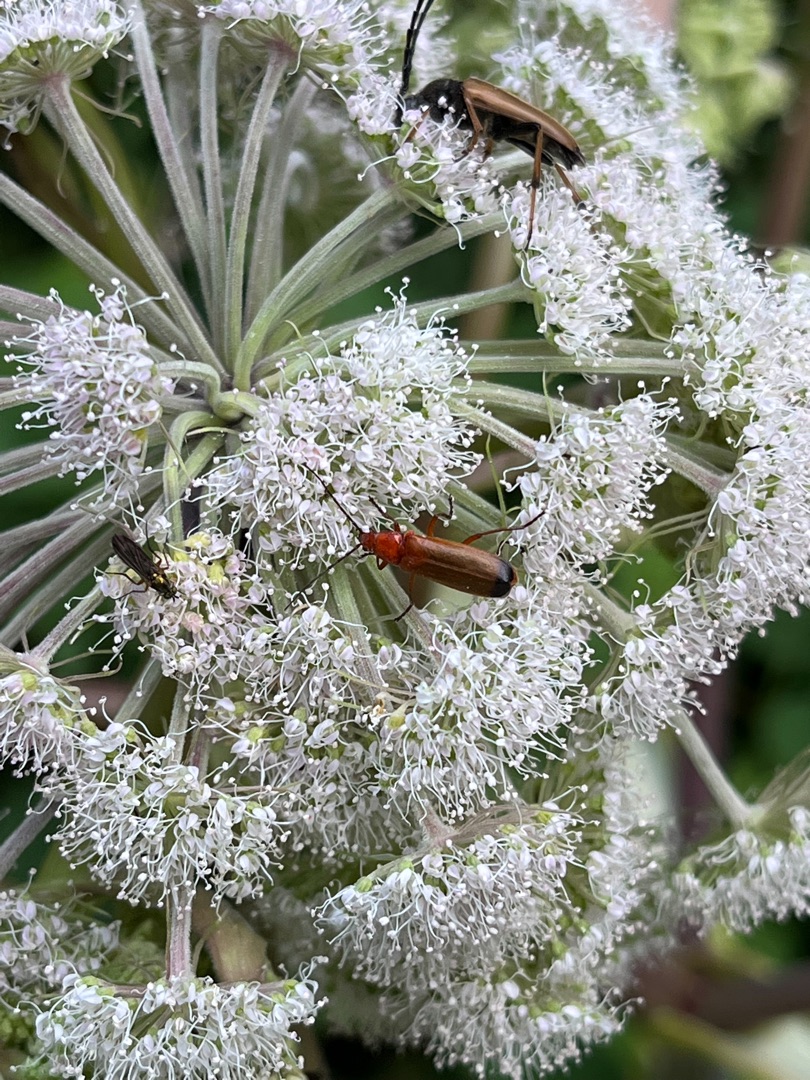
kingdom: Animalia
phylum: Arthropoda
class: Insecta
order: Coleoptera
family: Cantharidae
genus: Rhagonycha
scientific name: Rhagonycha fulva
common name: Præstebille
